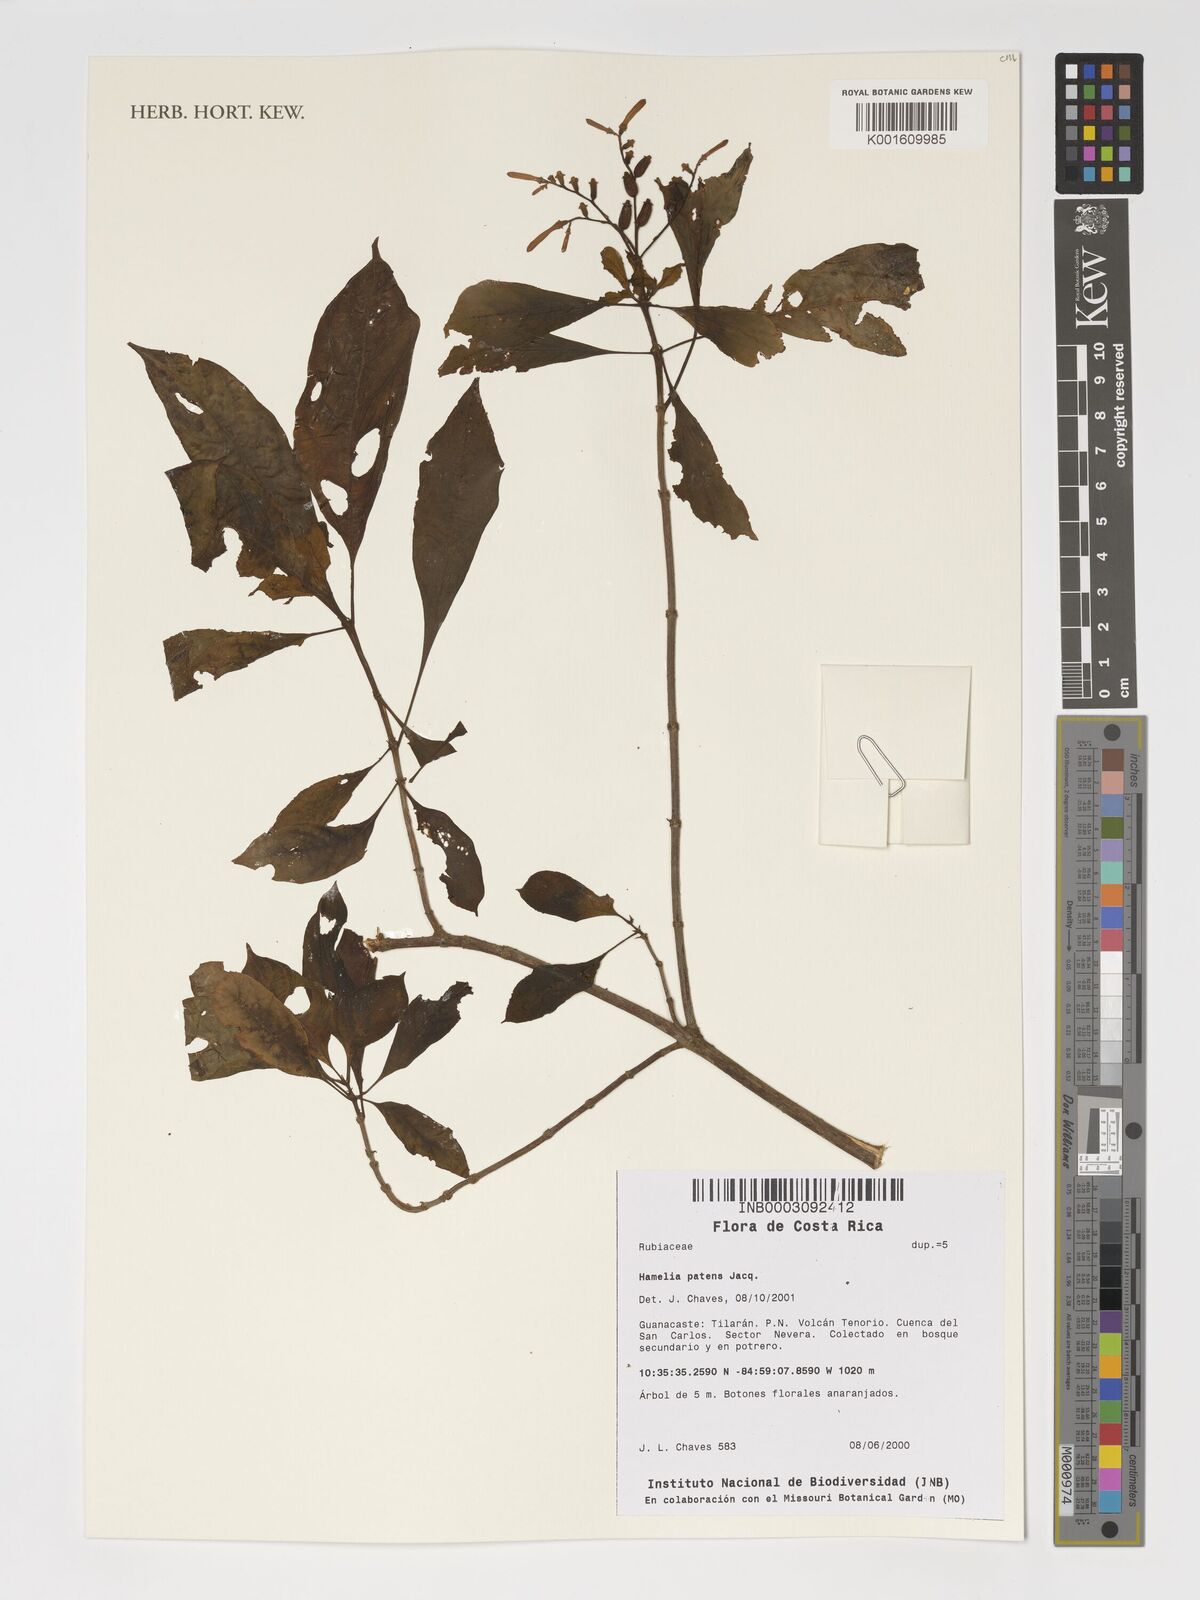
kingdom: Plantae
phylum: Tracheophyta
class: Magnoliopsida
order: Gentianales
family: Rubiaceae
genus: Hamelia
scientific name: Hamelia patens
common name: Redhead
